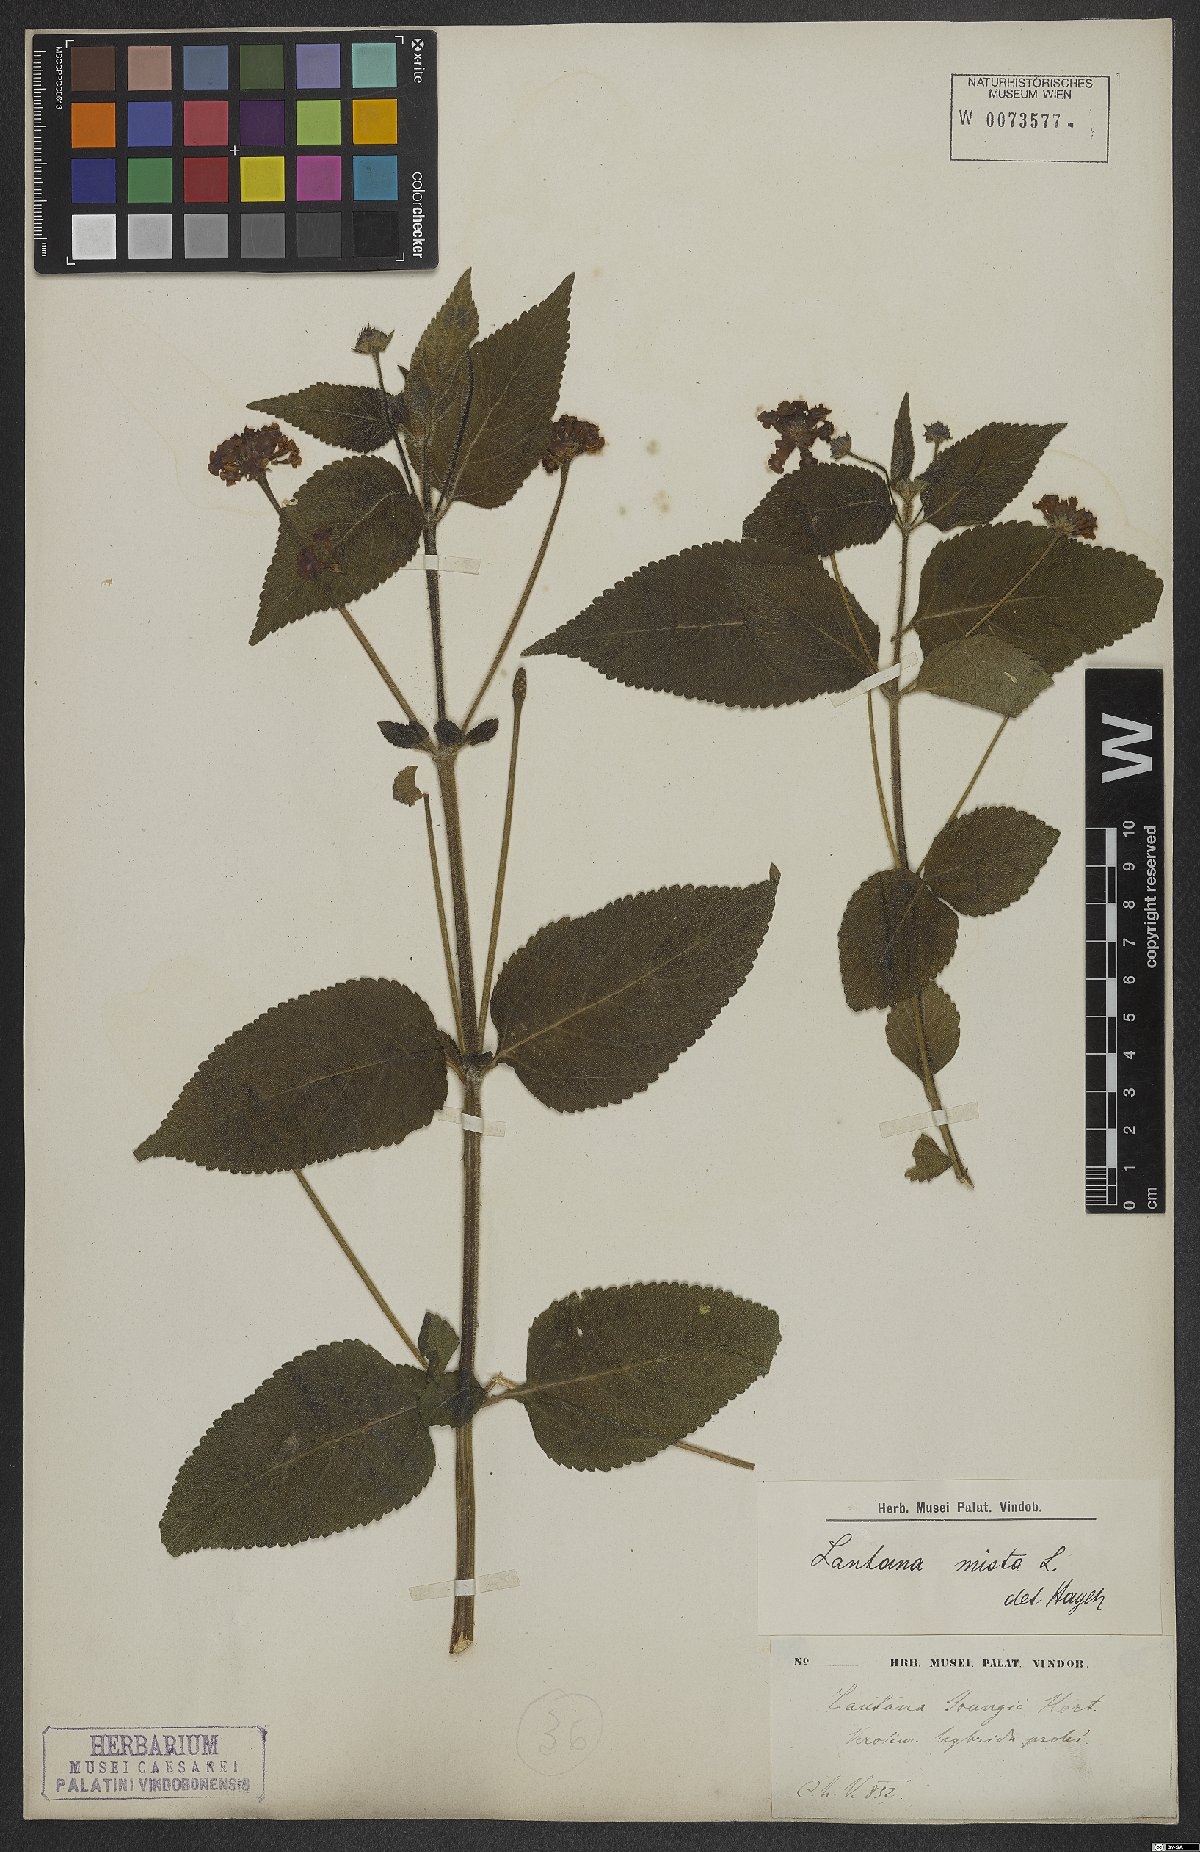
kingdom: Plantae
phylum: Tracheophyta
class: Magnoliopsida
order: Lamiales
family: Verbenaceae
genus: Lantana
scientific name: Lantana mista
